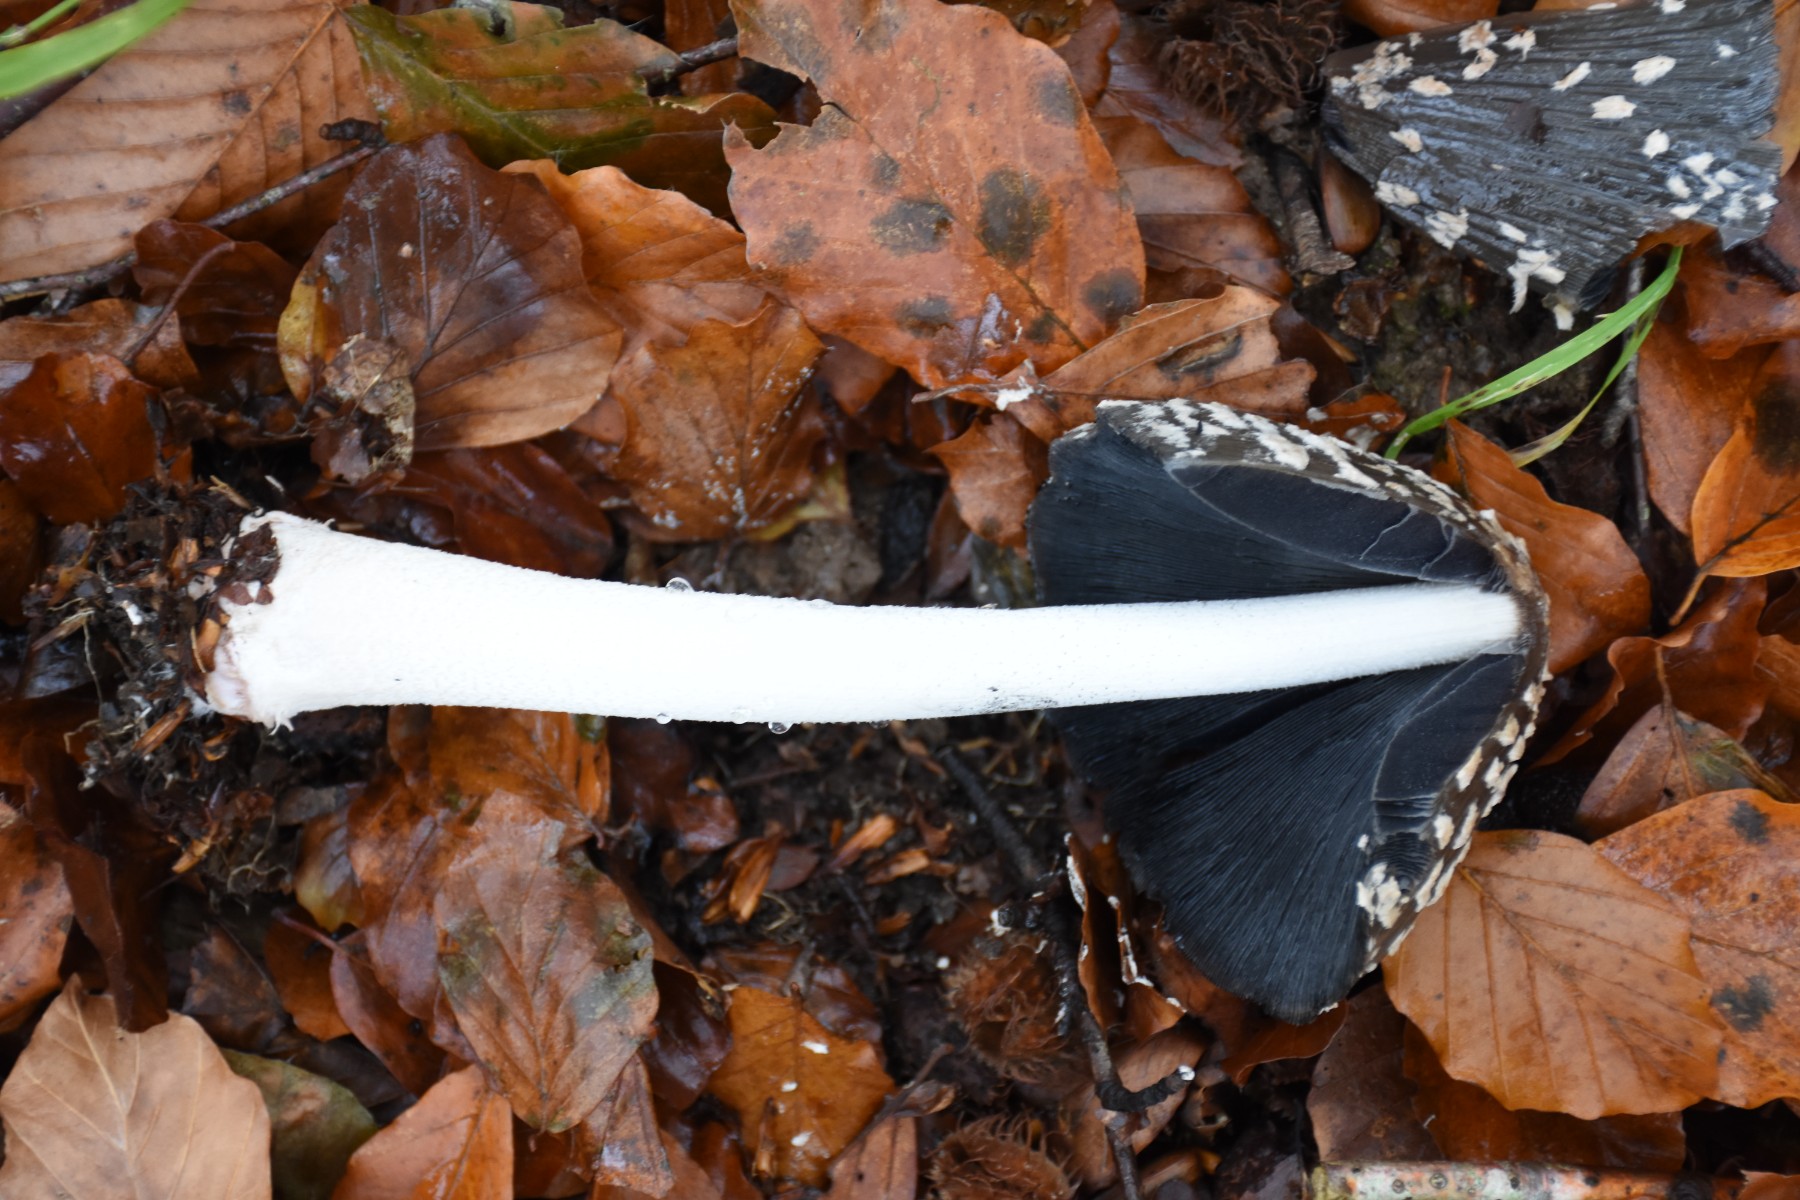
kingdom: Fungi
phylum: Basidiomycota
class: Agaricomycetes
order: Agaricales
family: Psathyrellaceae
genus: Coprinopsis
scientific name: Coprinopsis picacea
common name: skade-blækhat
